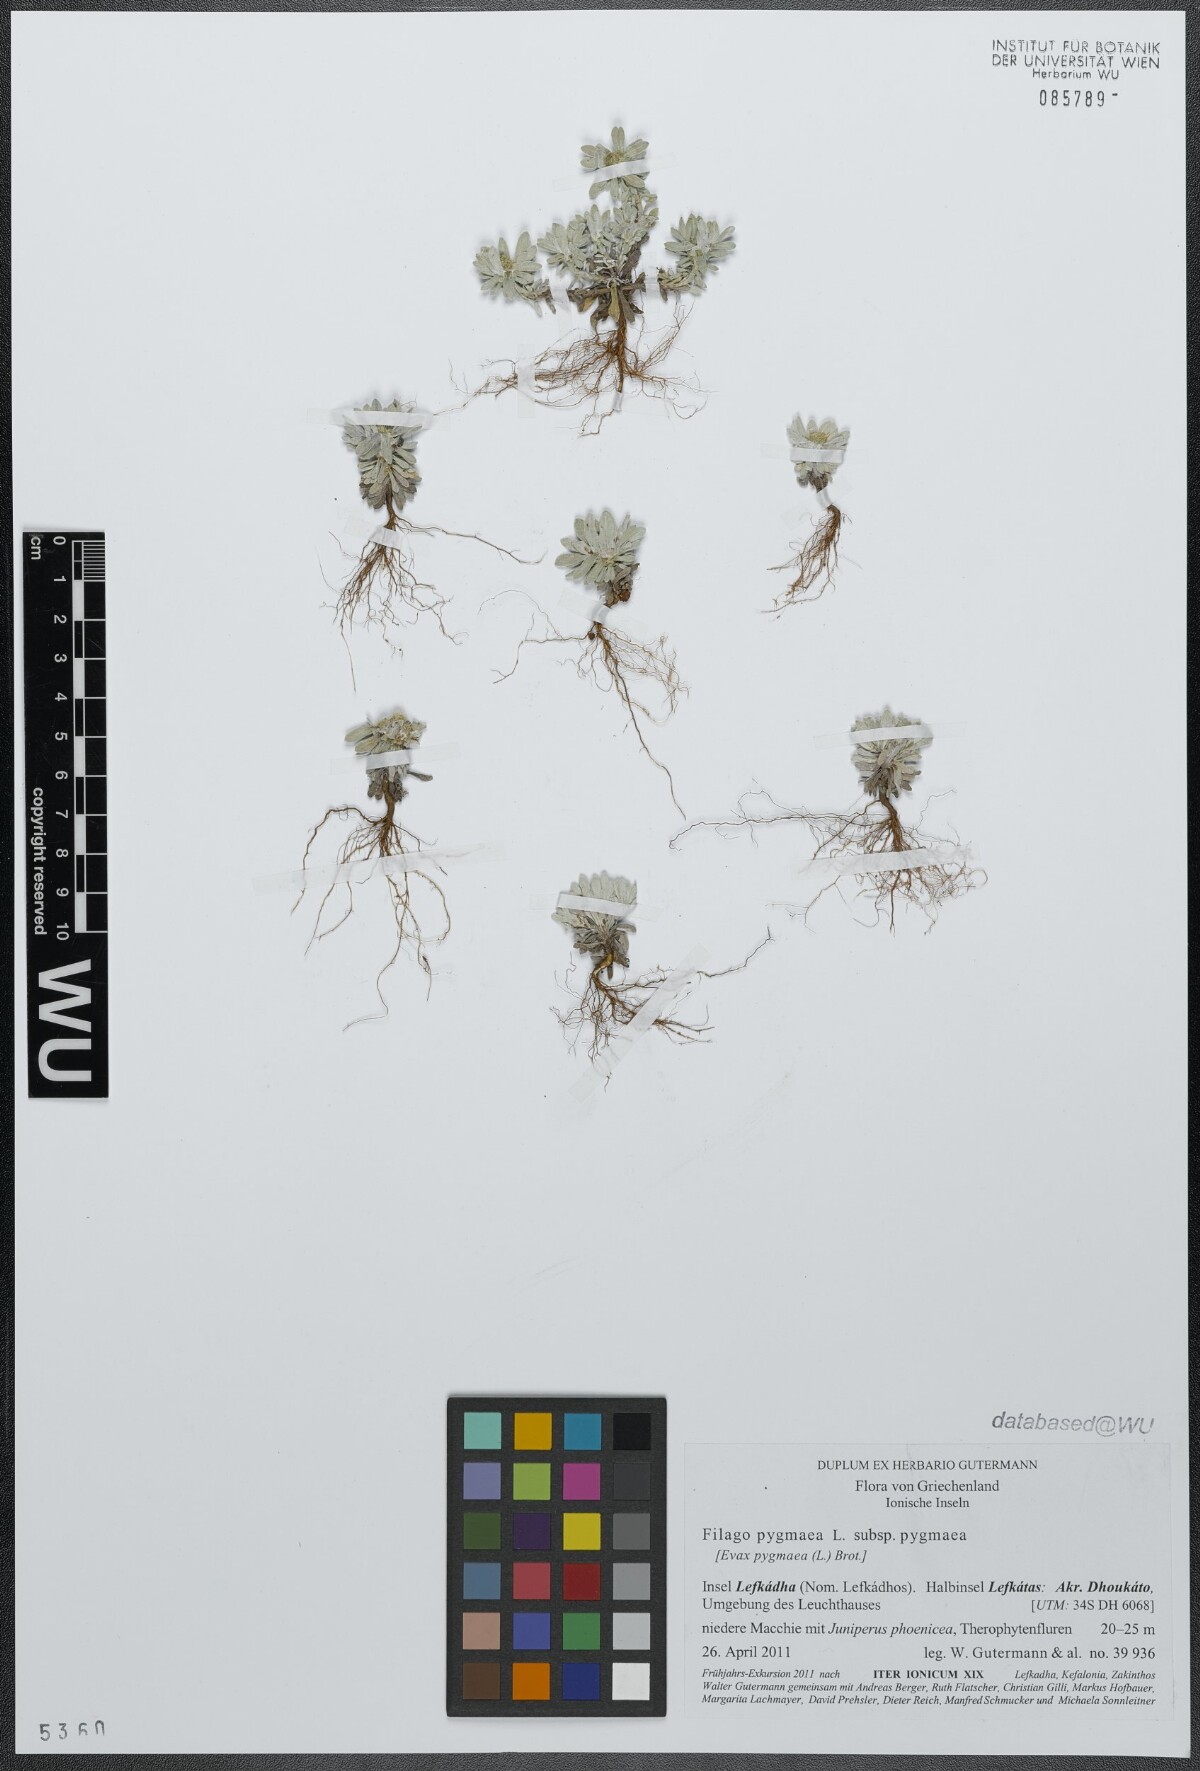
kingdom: Plantae
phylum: Tracheophyta
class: Magnoliopsida
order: Asterales
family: Asteraceae
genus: Filago
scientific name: Filago pygmaea
